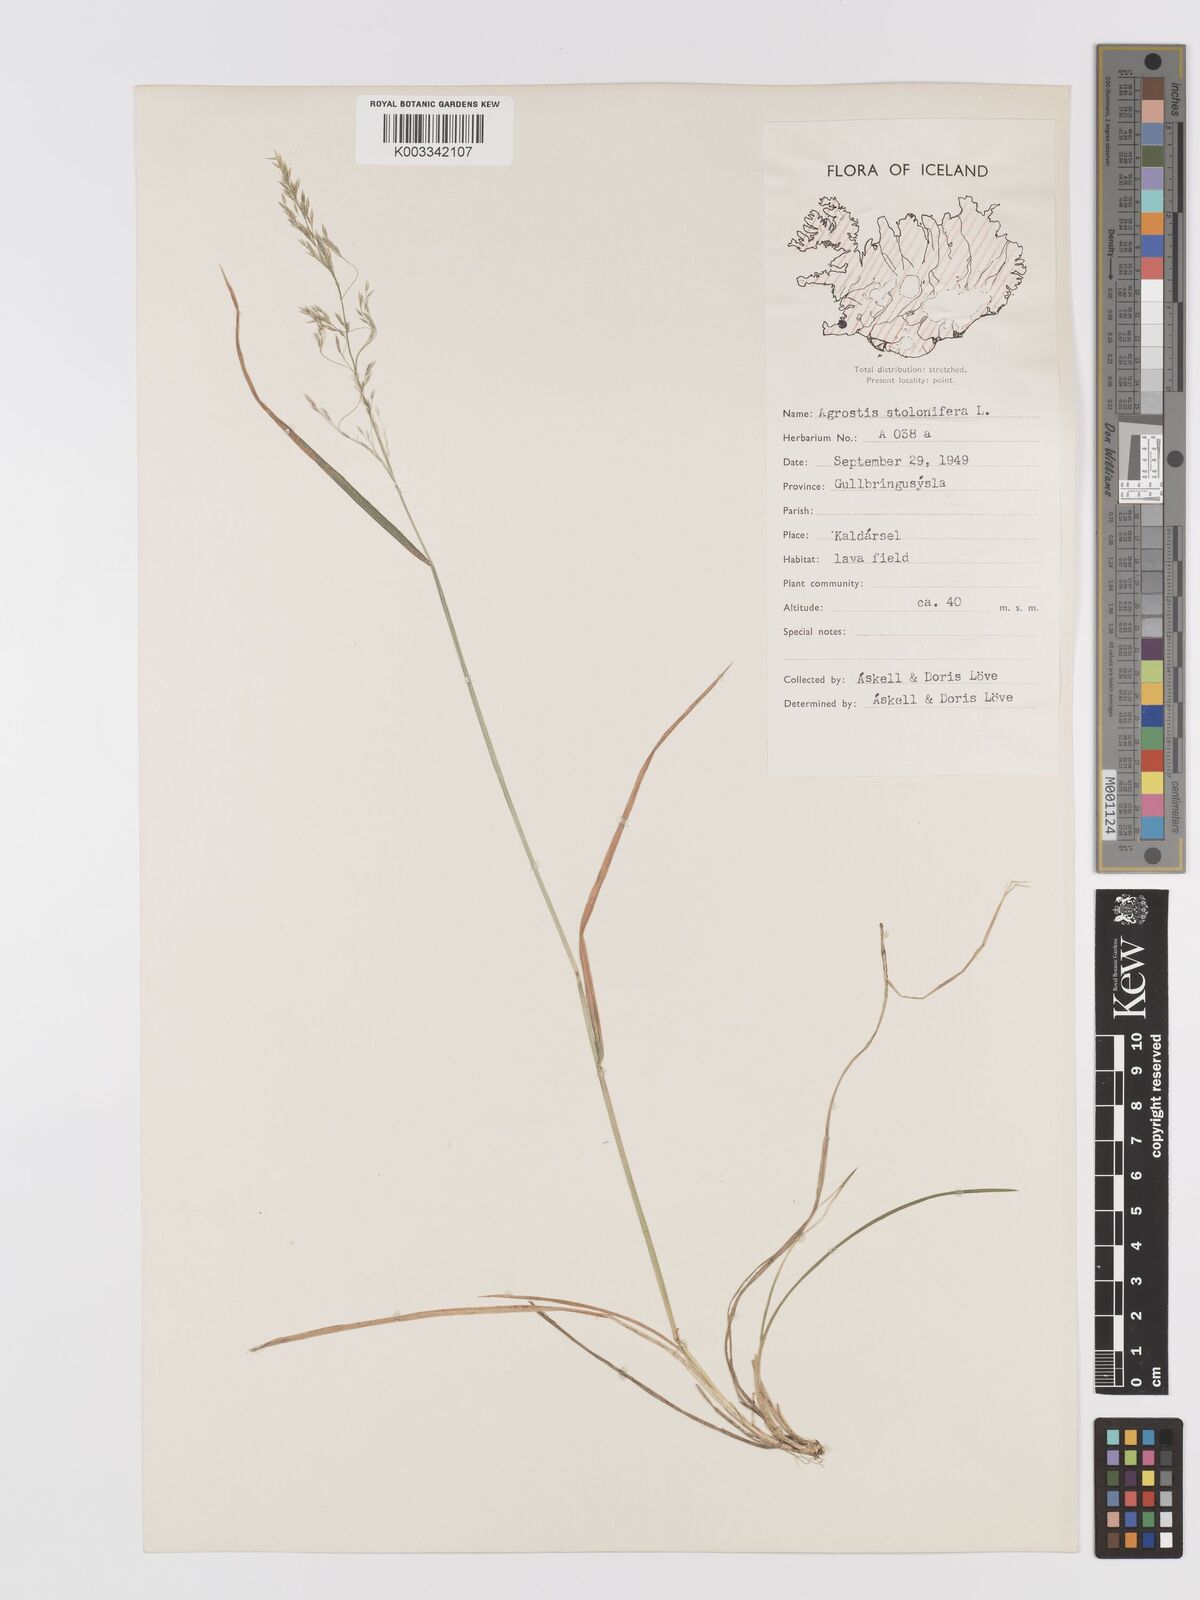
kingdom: Plantae
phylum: Tracheophyta
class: Liliopsida
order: Poales
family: Poaceae
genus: Agrostis
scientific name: Agrostis stolonifera
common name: Creeping bentgrass
